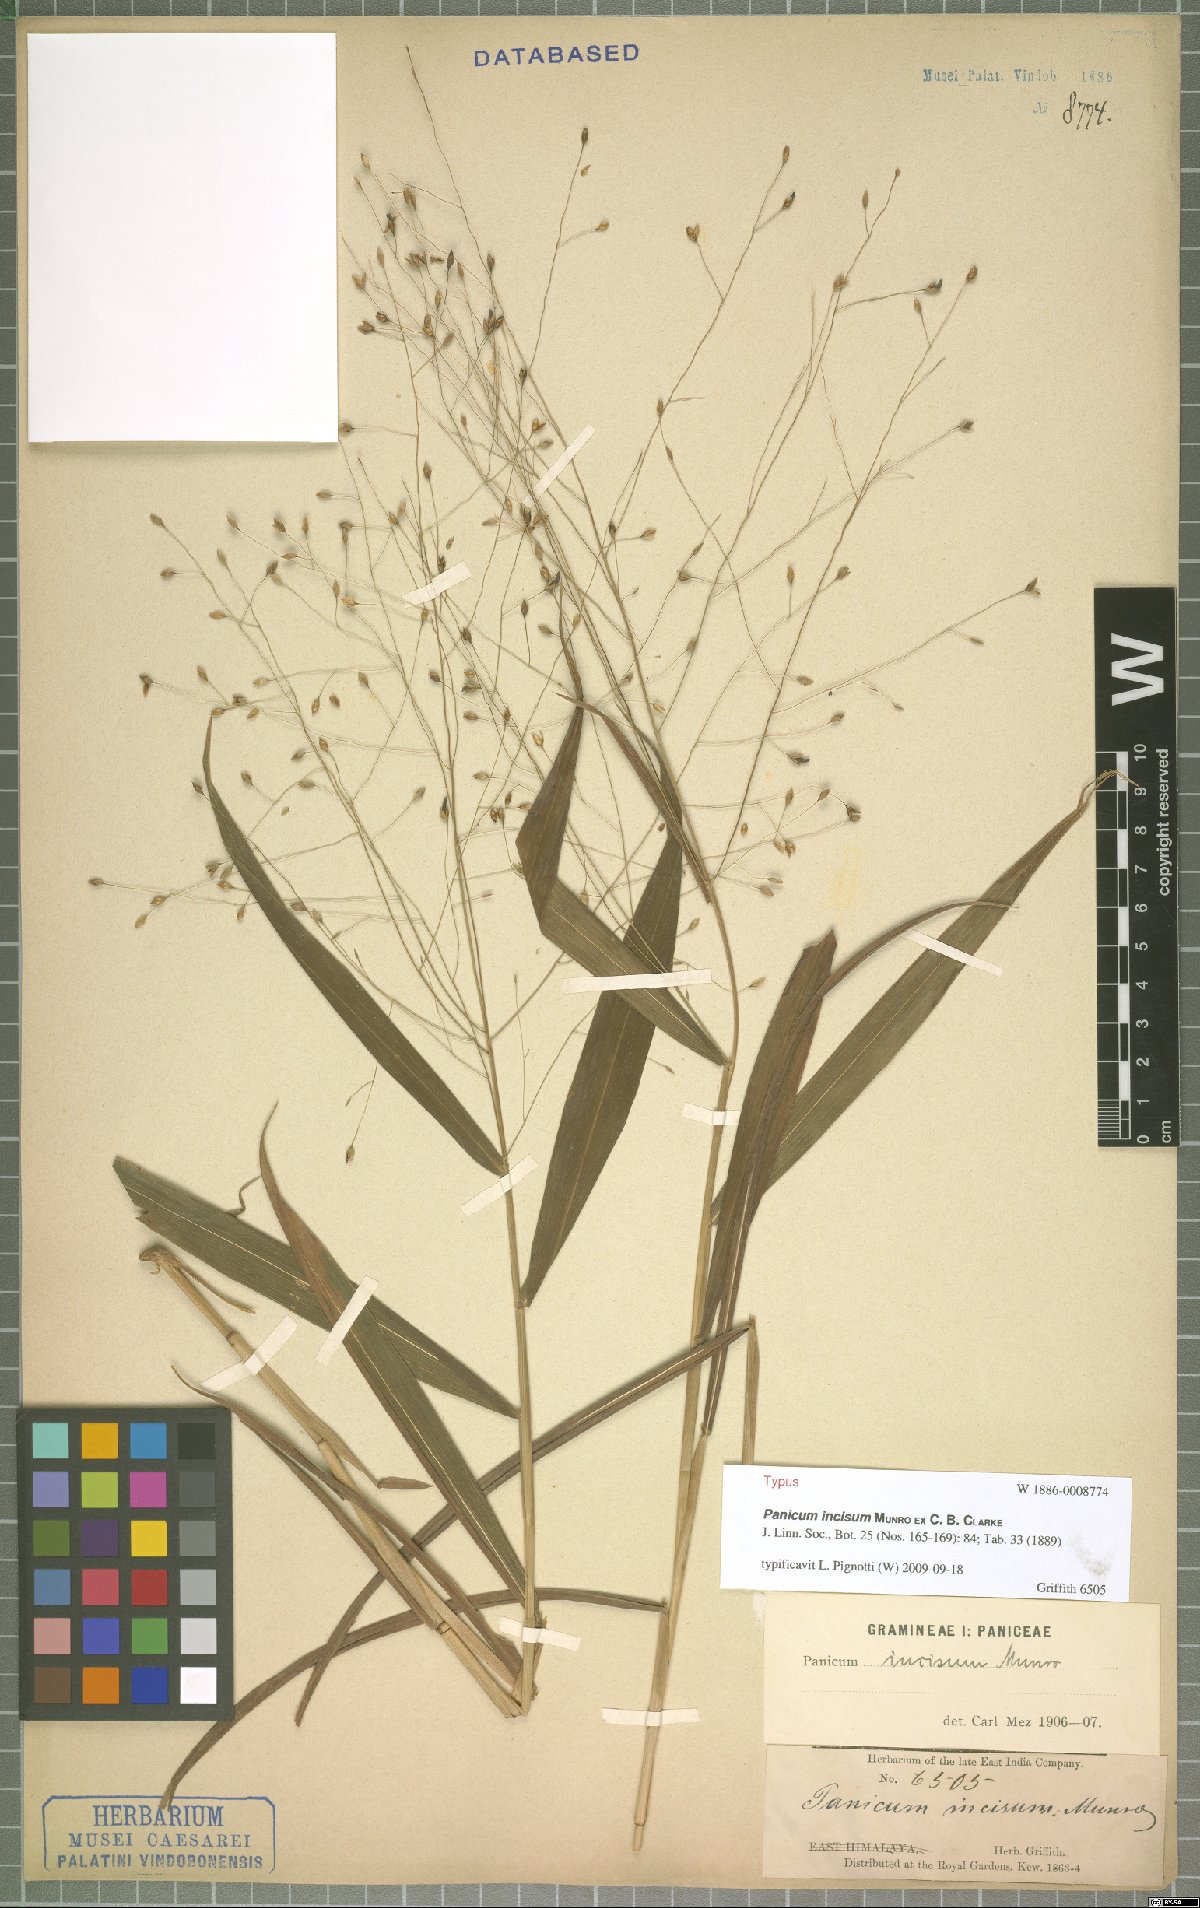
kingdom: Plantae
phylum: Tracheophyta
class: Liliopsida
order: Poales
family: Poaceae
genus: Panicum
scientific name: Panicum incisum
